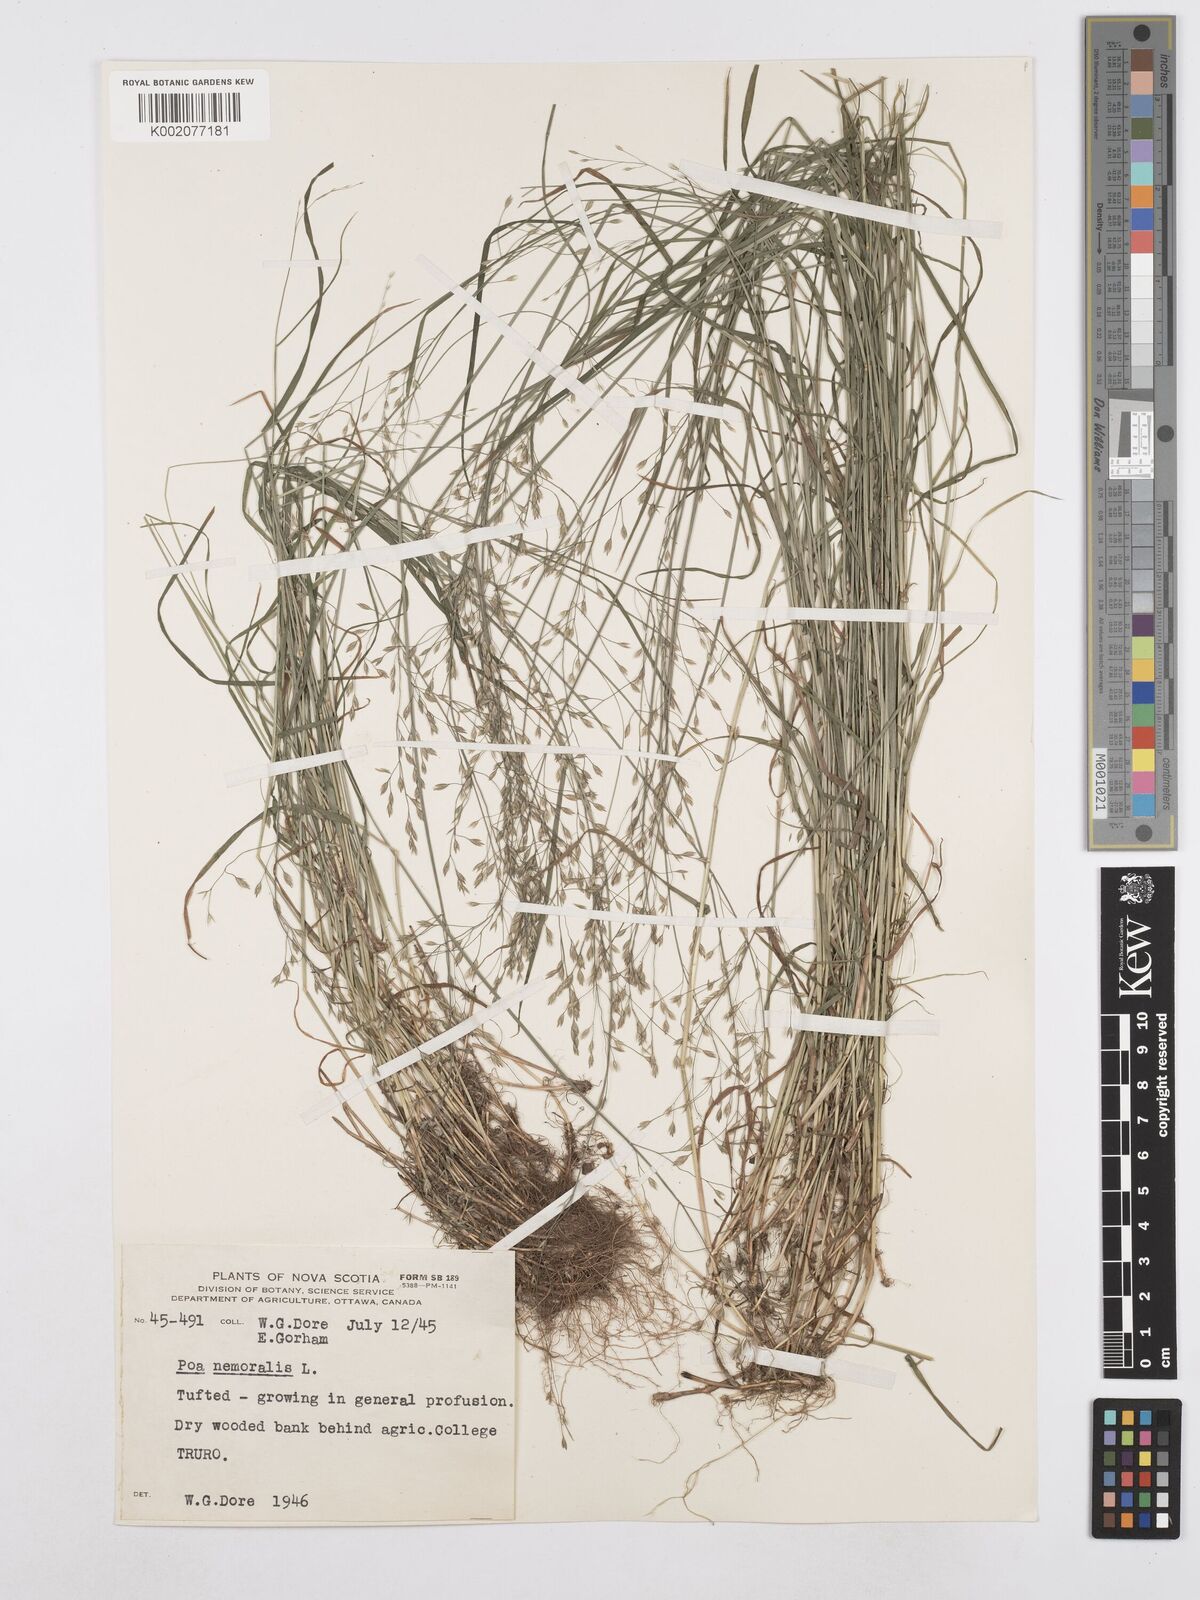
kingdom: Plantae
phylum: Tracheophyta
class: Liliopsida
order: Poales
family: Poaceae
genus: Poa
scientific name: Poa nemoralis
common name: Wood bluegrass
